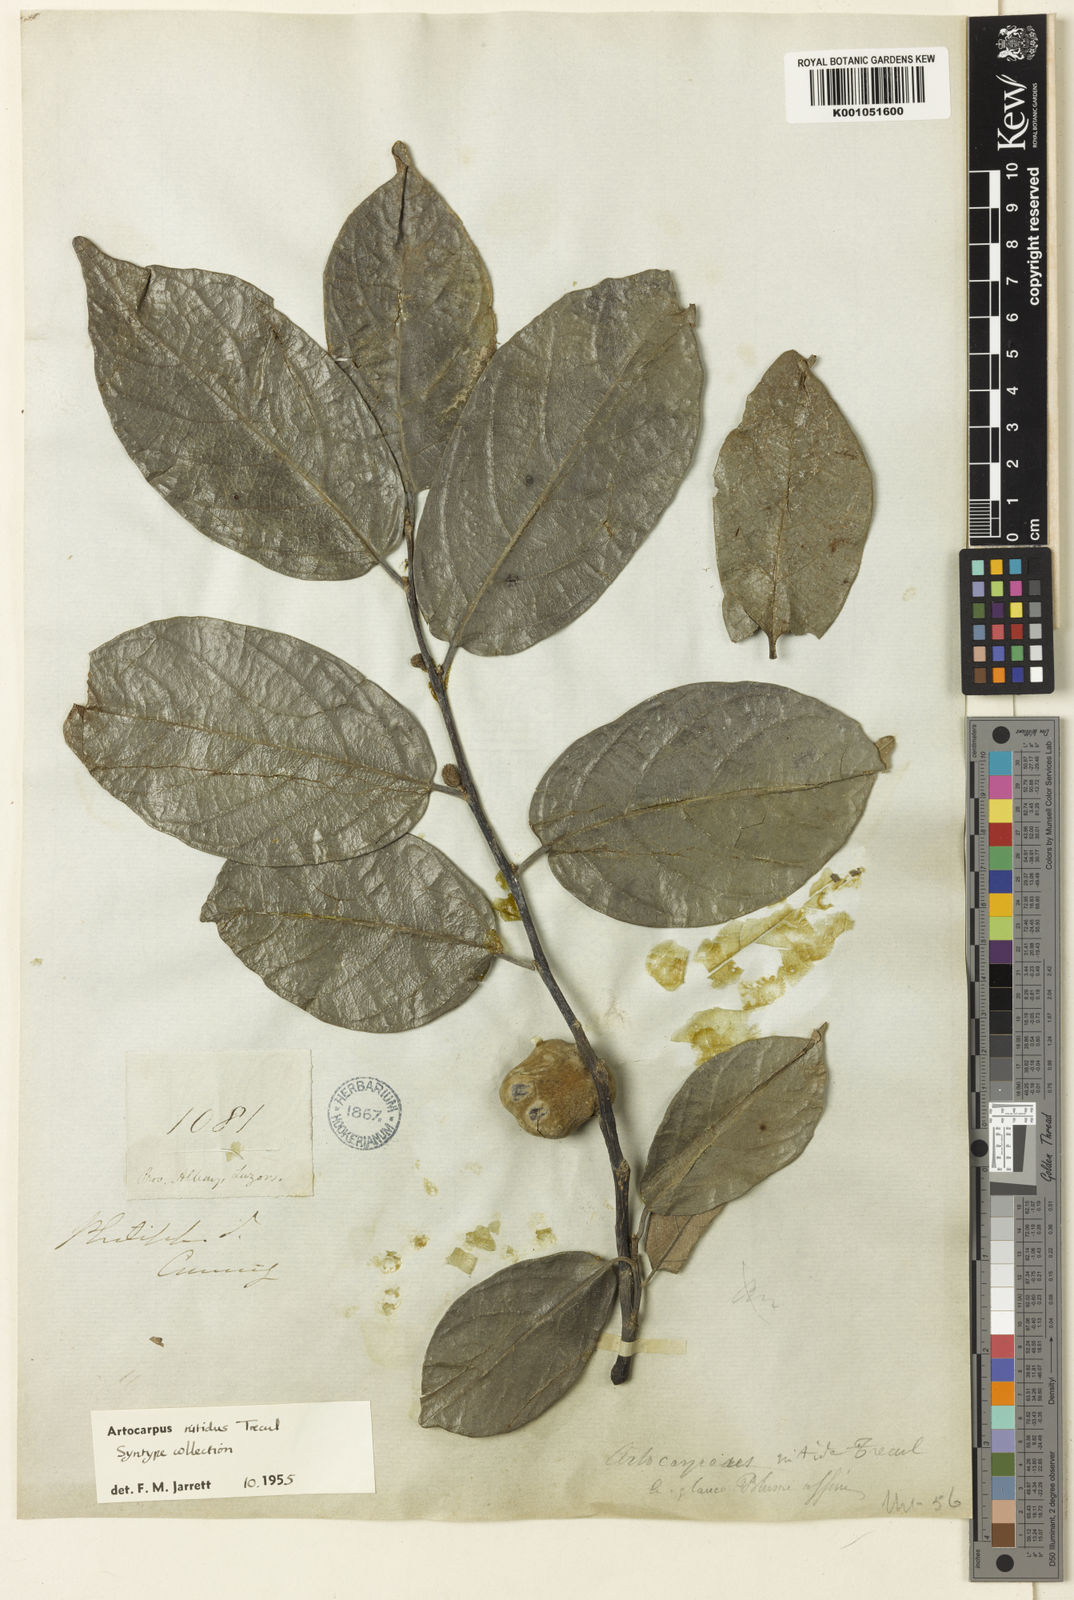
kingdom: Plantae
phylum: Tracheophyta
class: Magnoliopsida
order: Rosales
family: Moraceae
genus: Artocarpus
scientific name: Artocarpus
